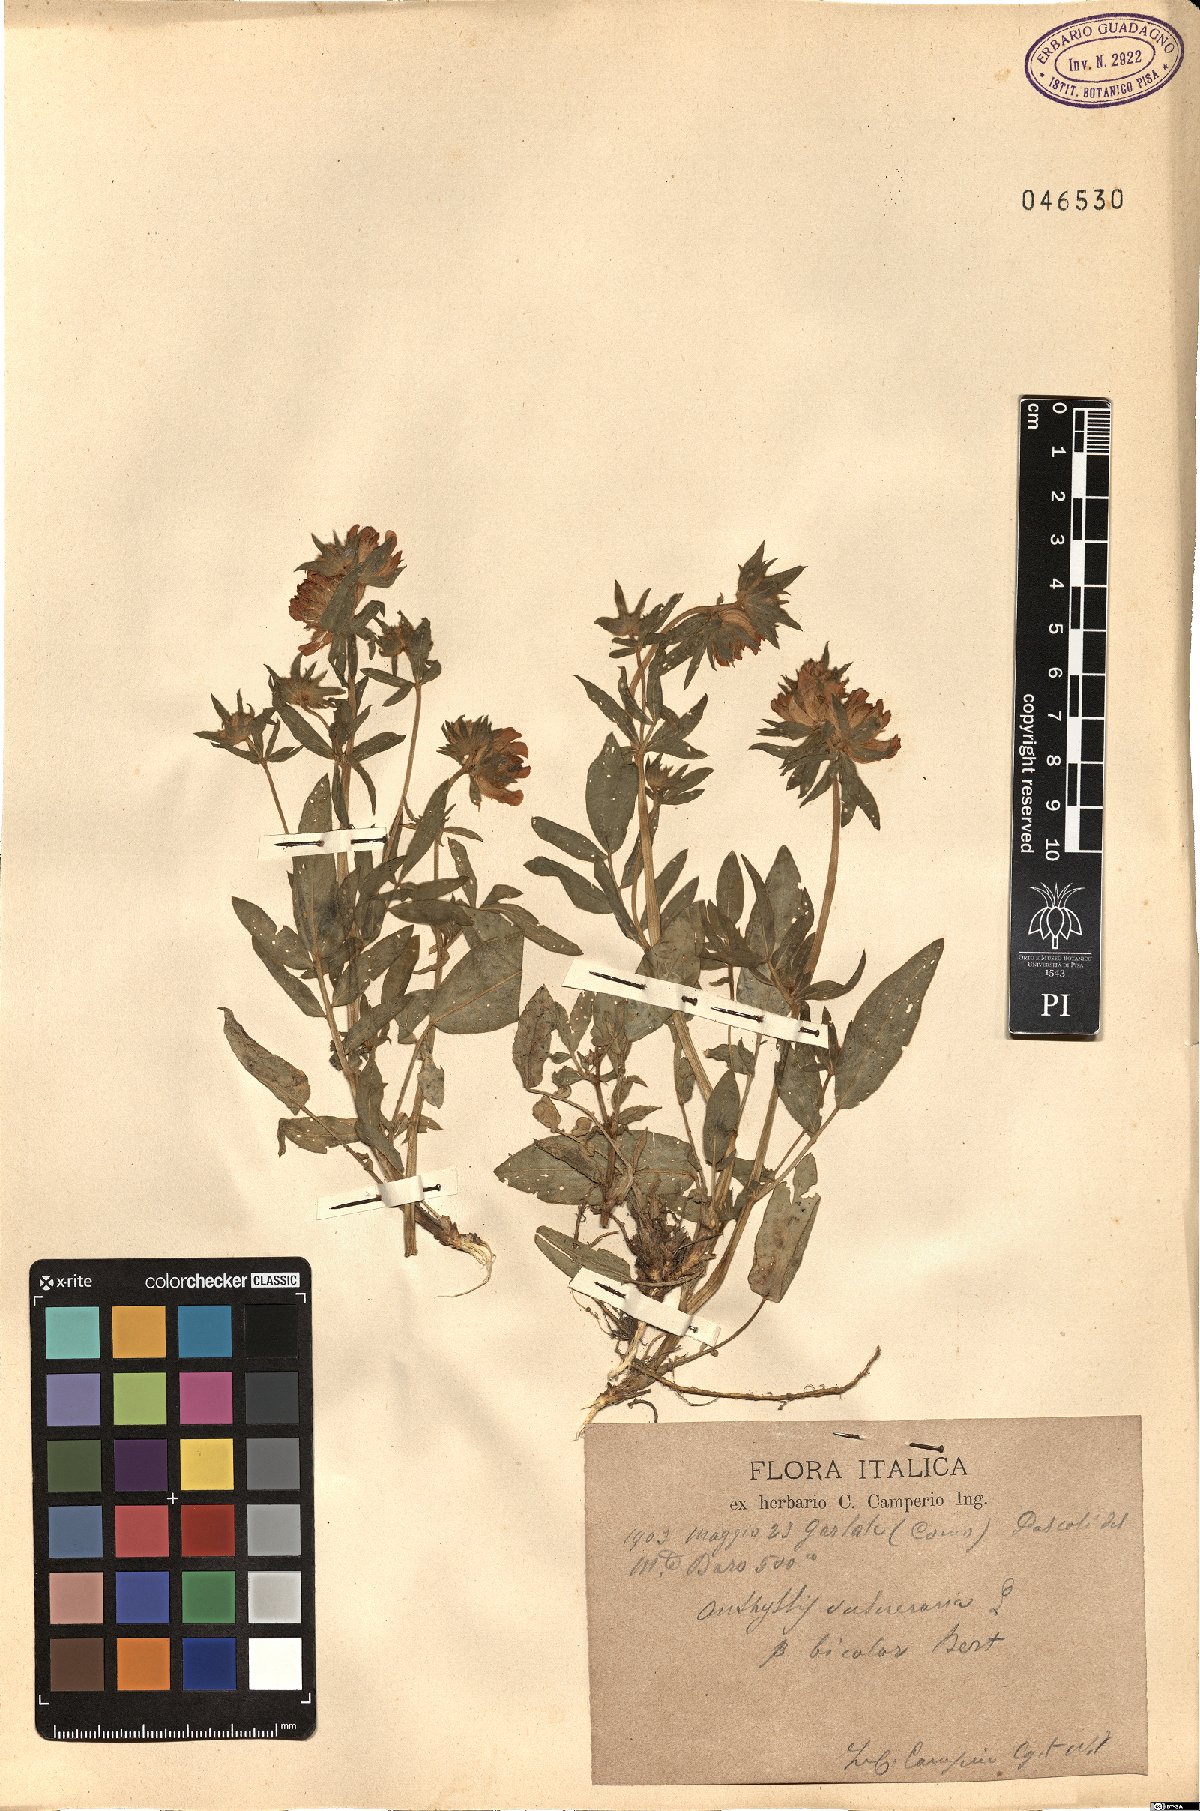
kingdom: Plantae
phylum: Tracheophyta
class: Magnoliopsida
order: Fabales
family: Fabaceae
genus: Anthyllis
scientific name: Anthyllis vulneraria
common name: Kidney vetch
